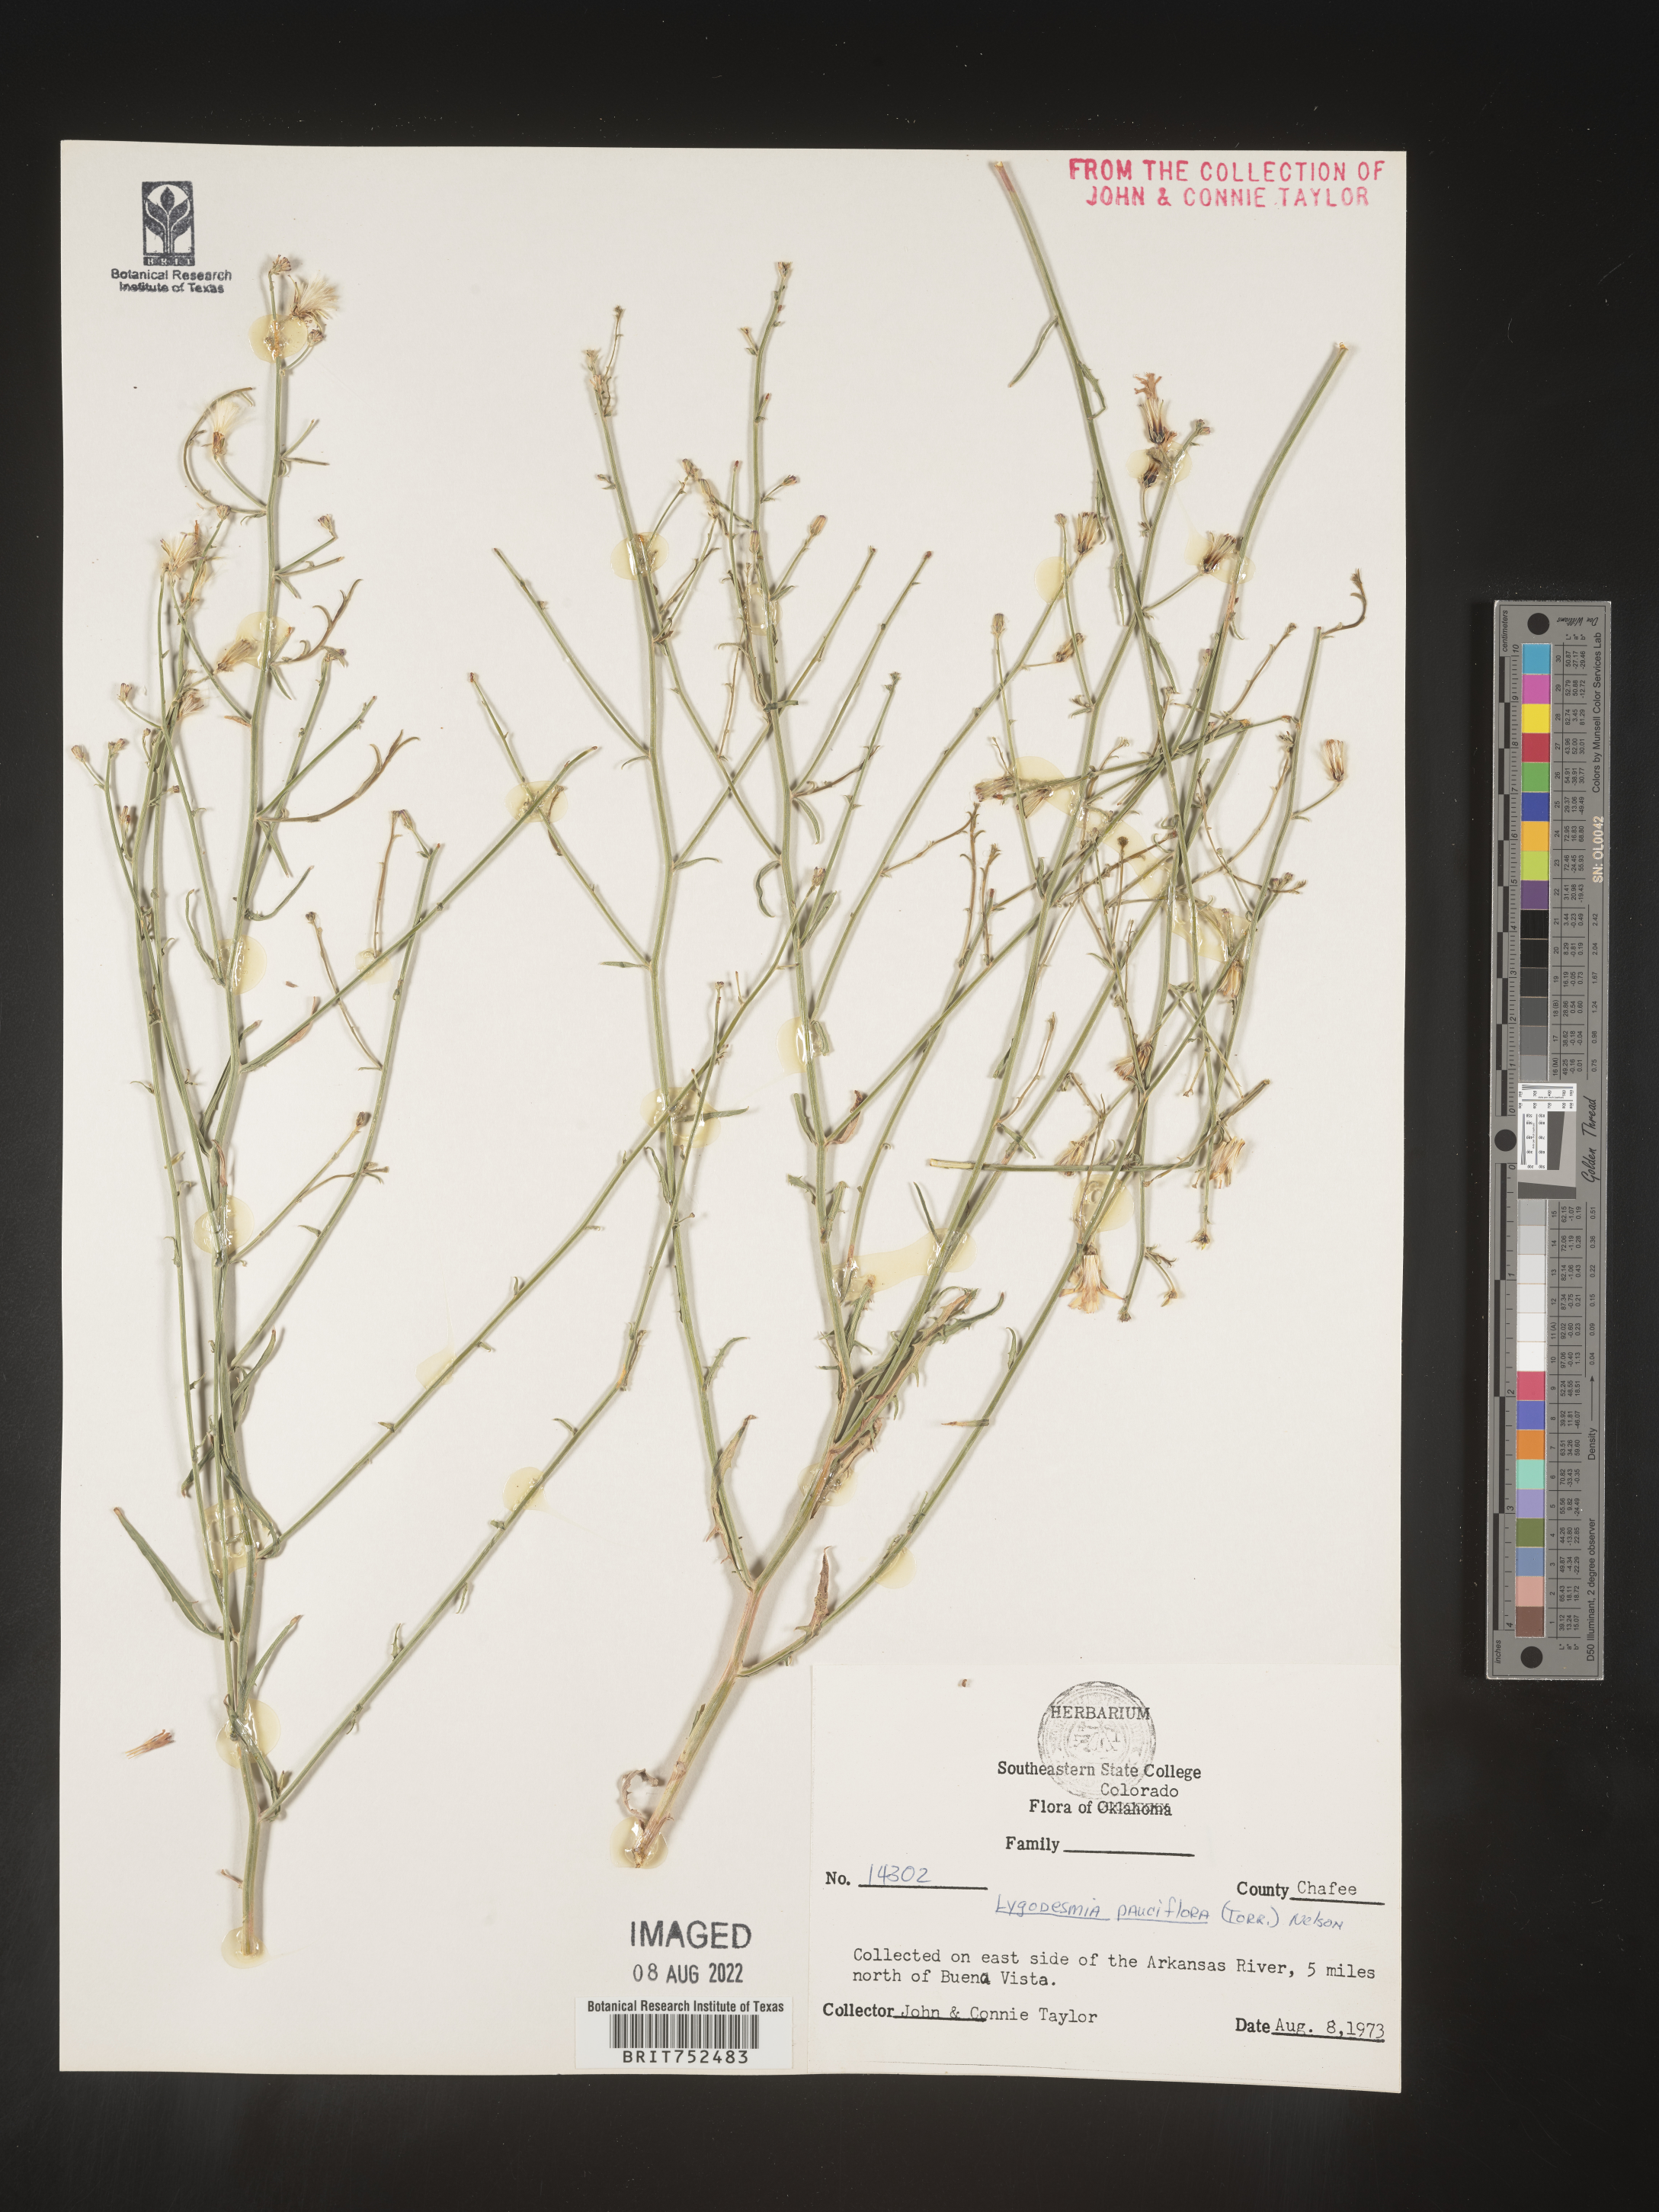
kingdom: Plantae
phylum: Tracheophyta
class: Magnoliopsida
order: Asterales
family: Asteraceae
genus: Stephanomeria
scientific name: Stephanomeria pauciflora
